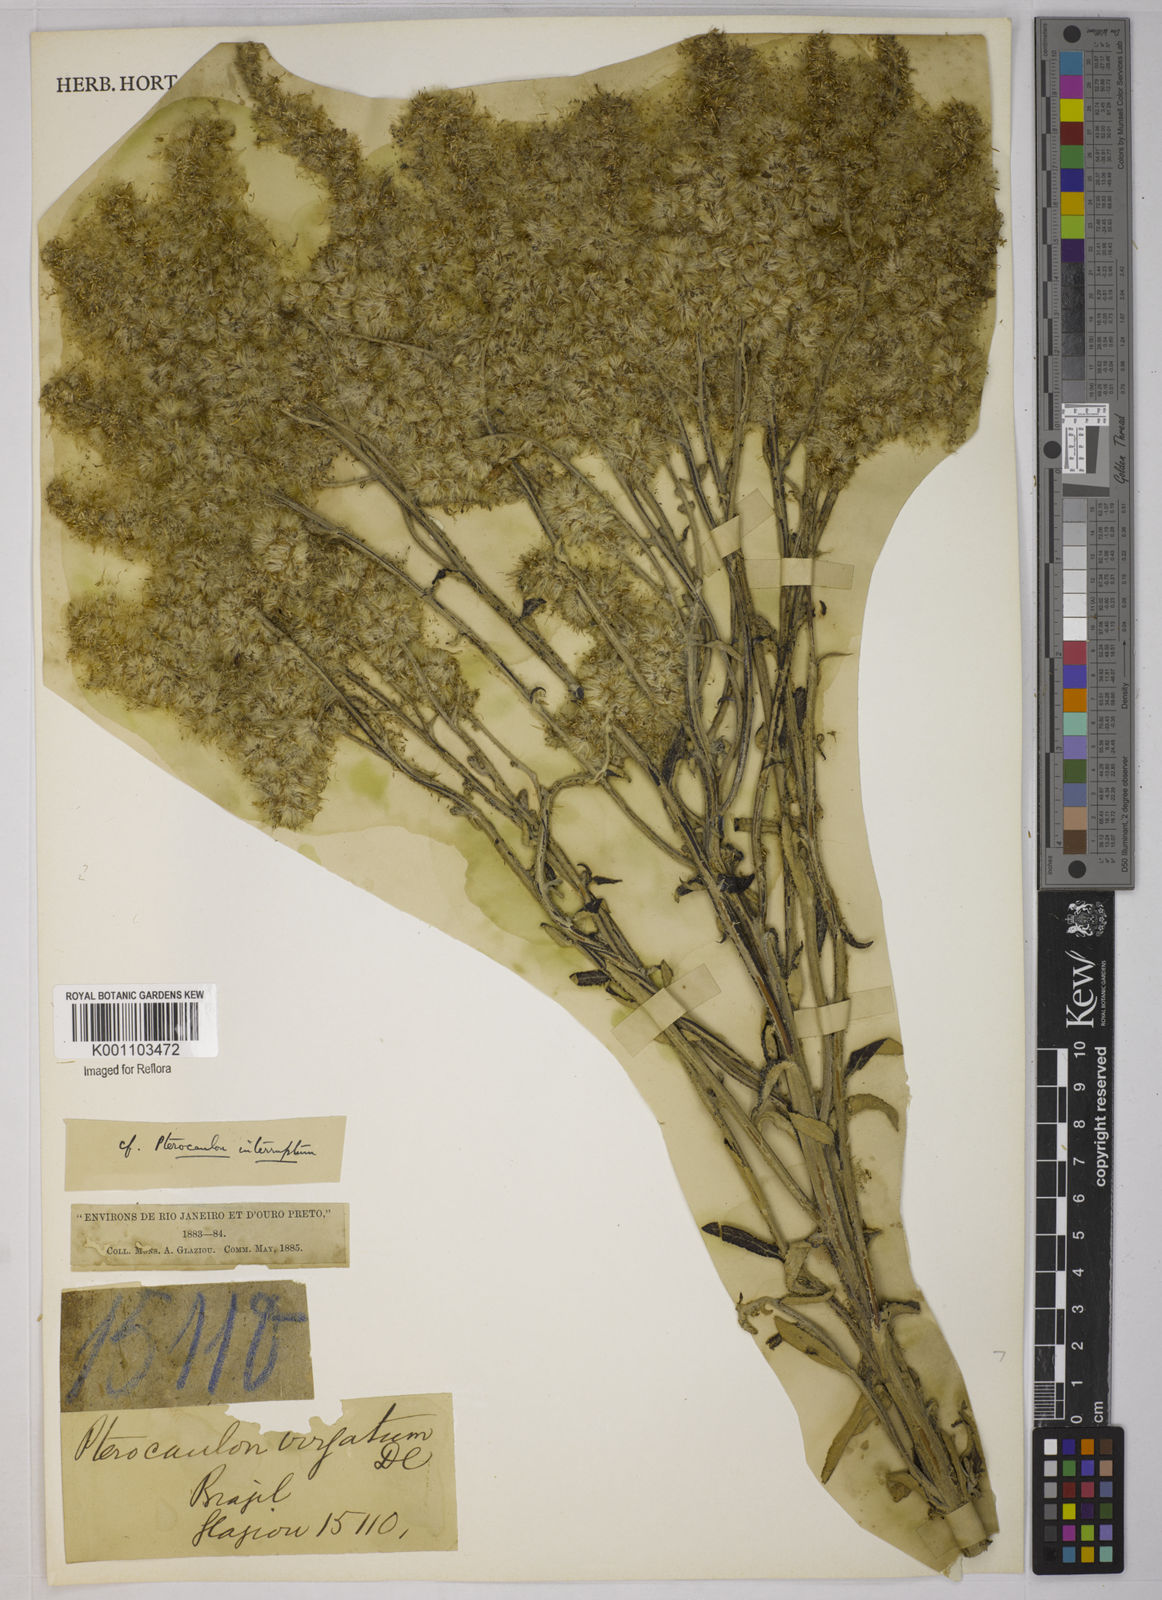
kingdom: Plantae
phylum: Tracheophyta
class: Magnoliopsida
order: Asterales
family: Asteraceae
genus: Pterocaulon
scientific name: Pterocaulon virgatum
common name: Wand blackroot
